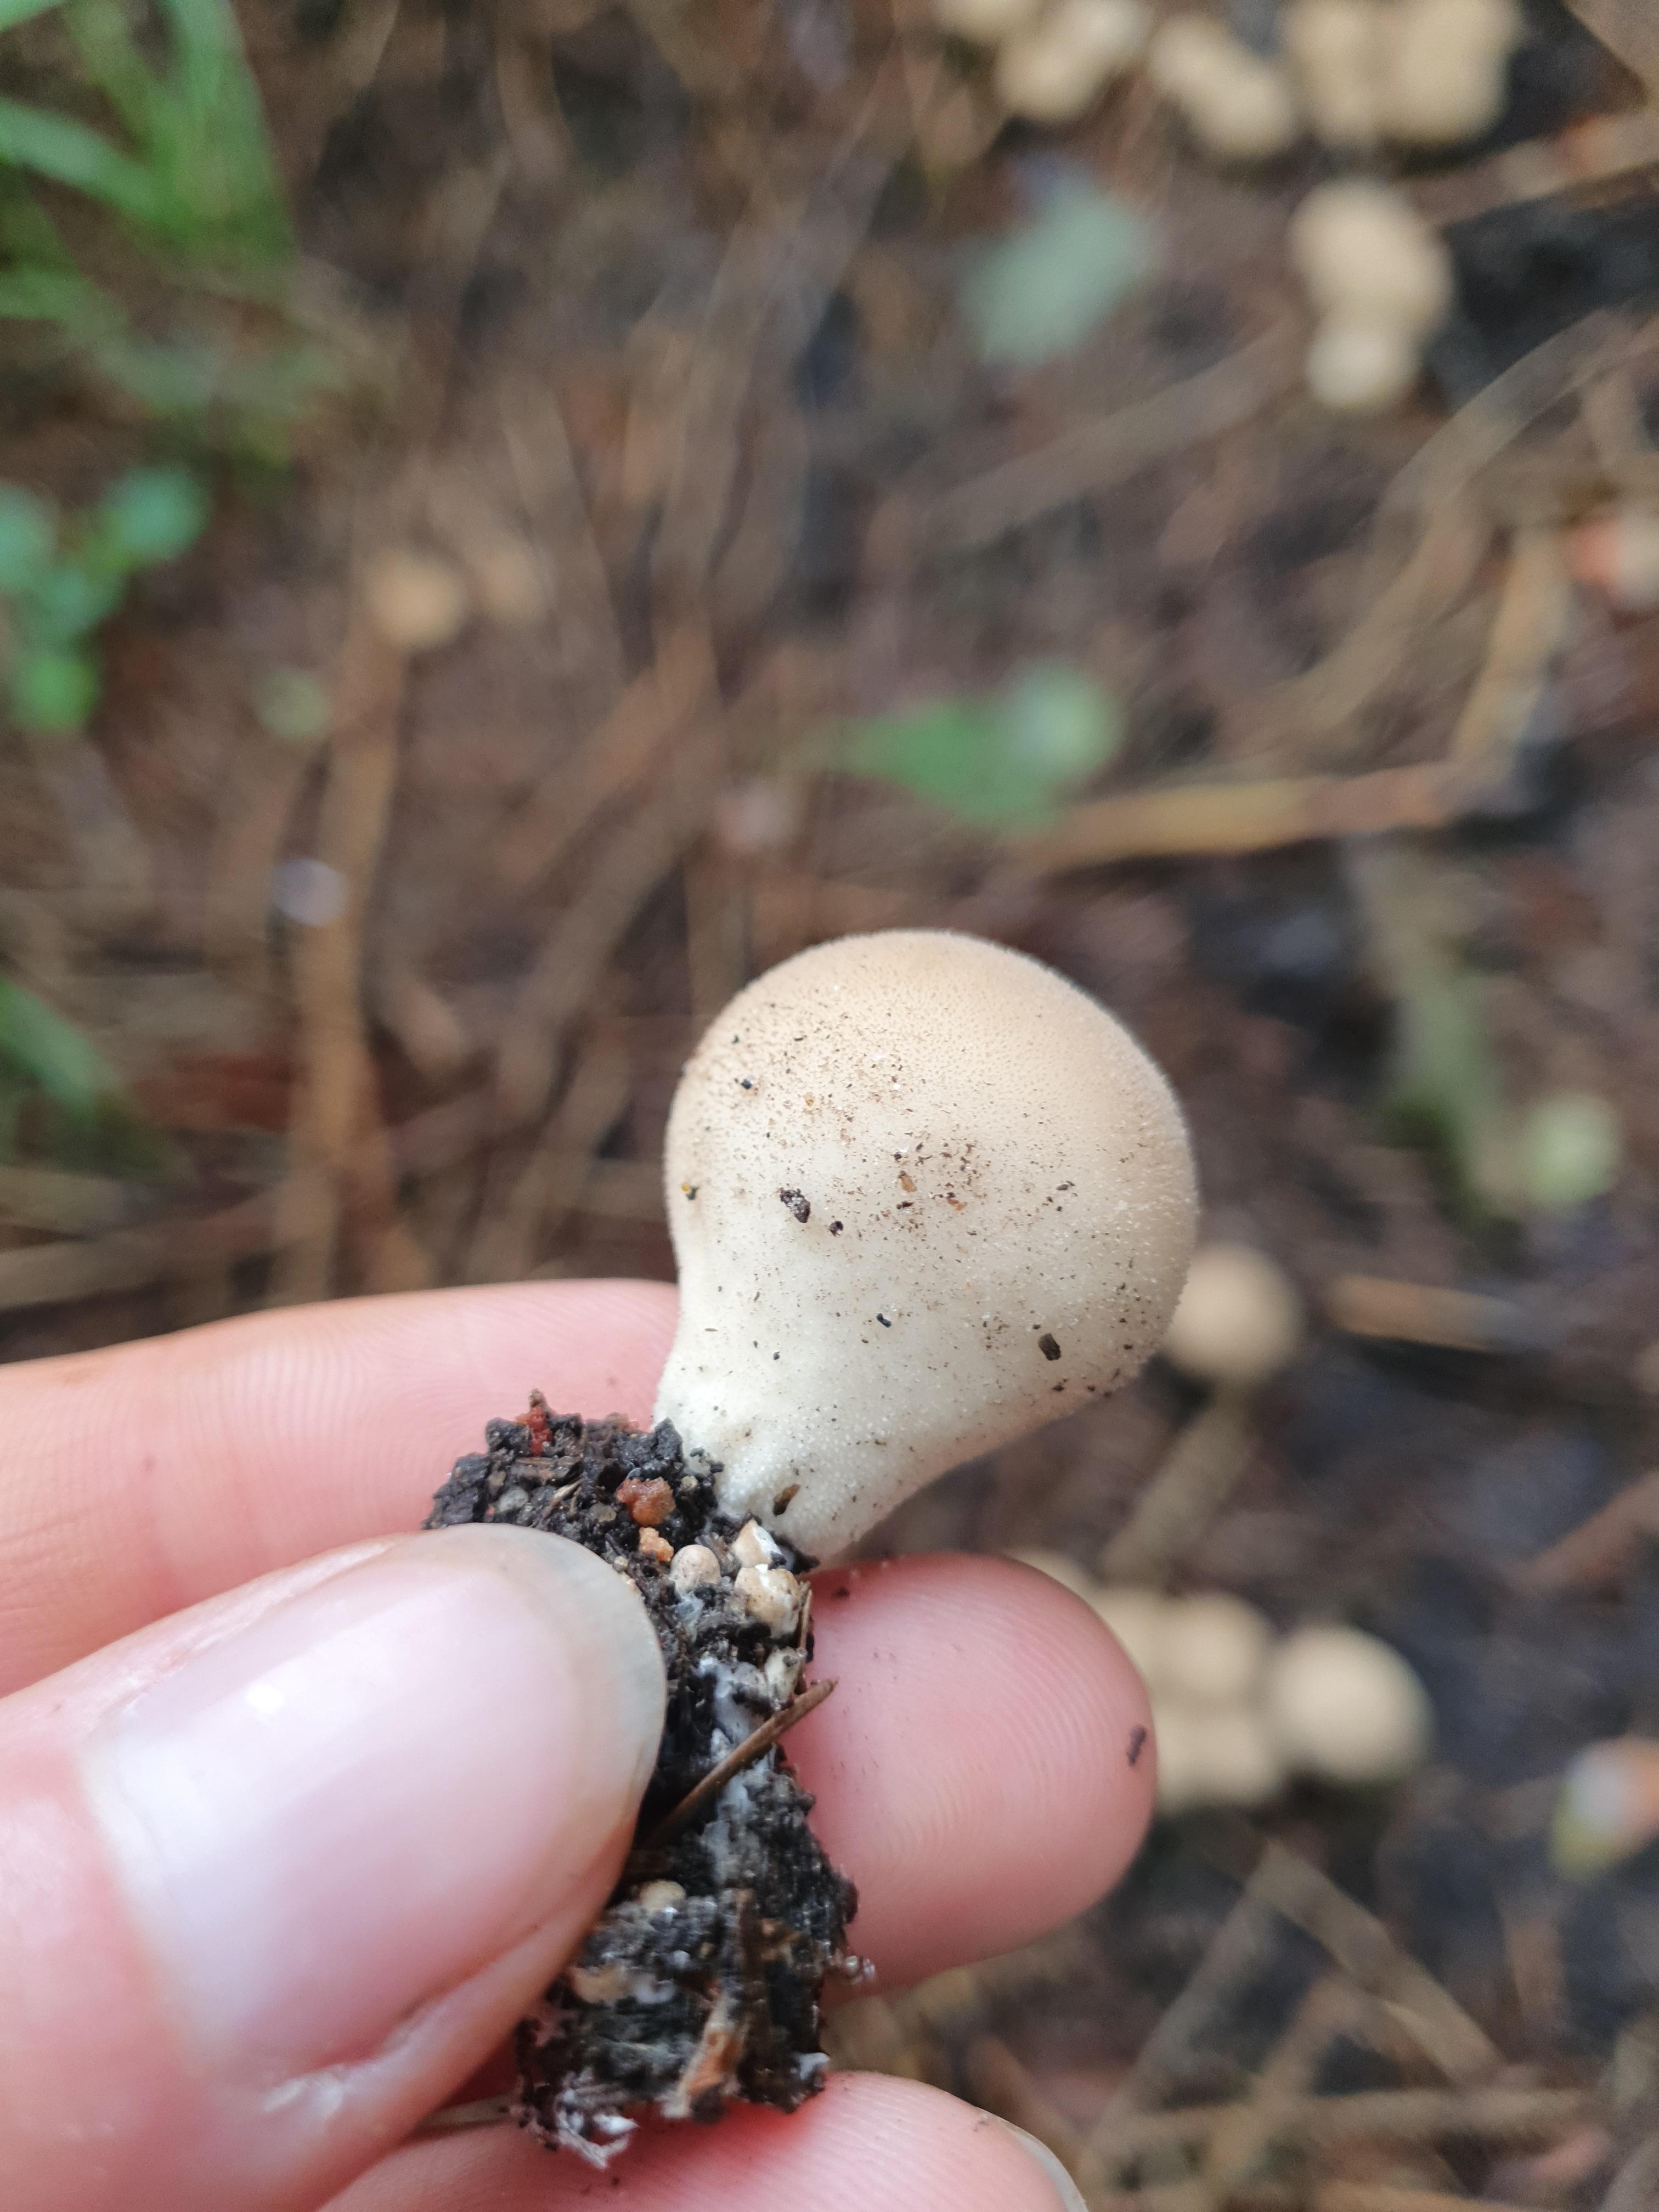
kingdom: Fungi
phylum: Basidiomycota
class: Agaricomycetes
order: Agaricales
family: Lycoperdaceae
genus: Apioperdon
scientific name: Apioperdon pyriforme
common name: pære-støvbold
